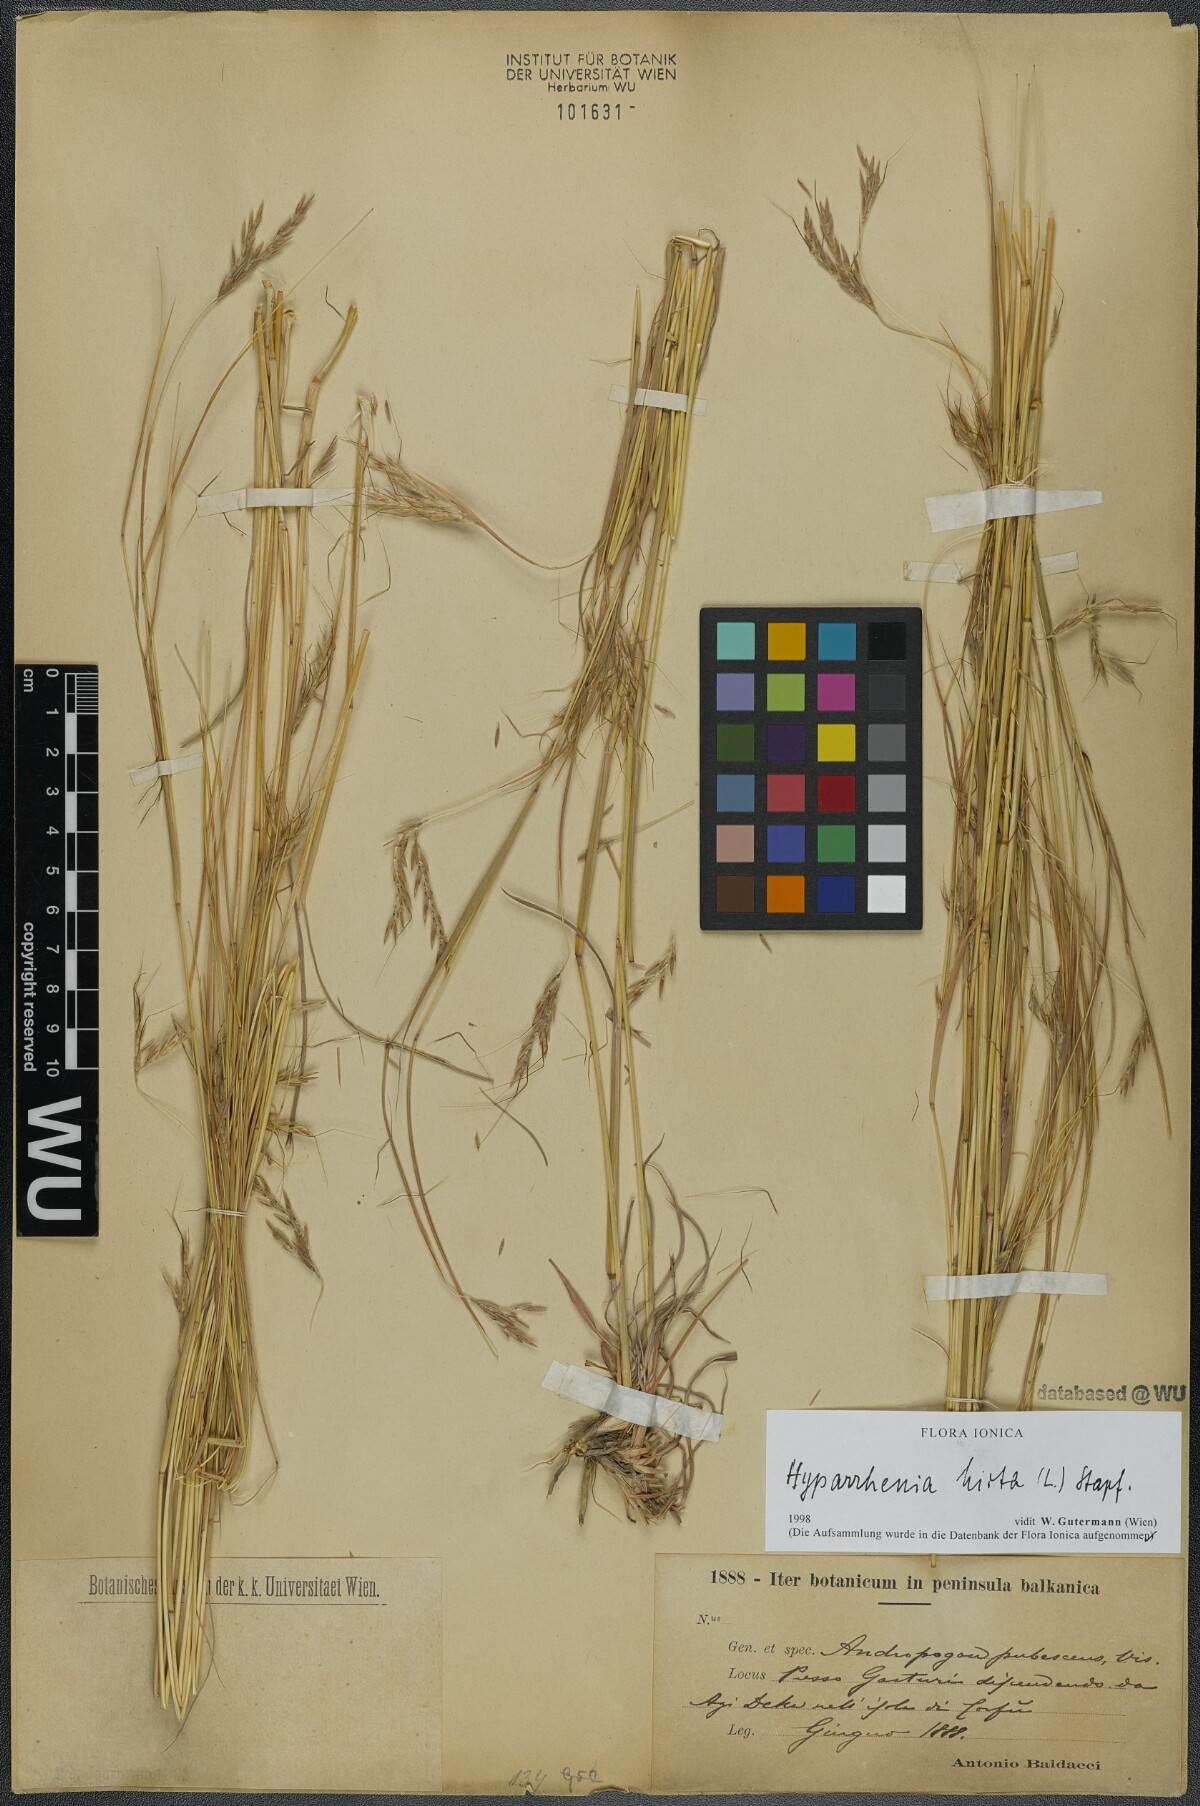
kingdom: Plantae
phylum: Tracheophyta
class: Liliopsida
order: Poales
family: Poaceae
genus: Hyparrhenia
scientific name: Hyparrhenia hirta
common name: Thatching grass
